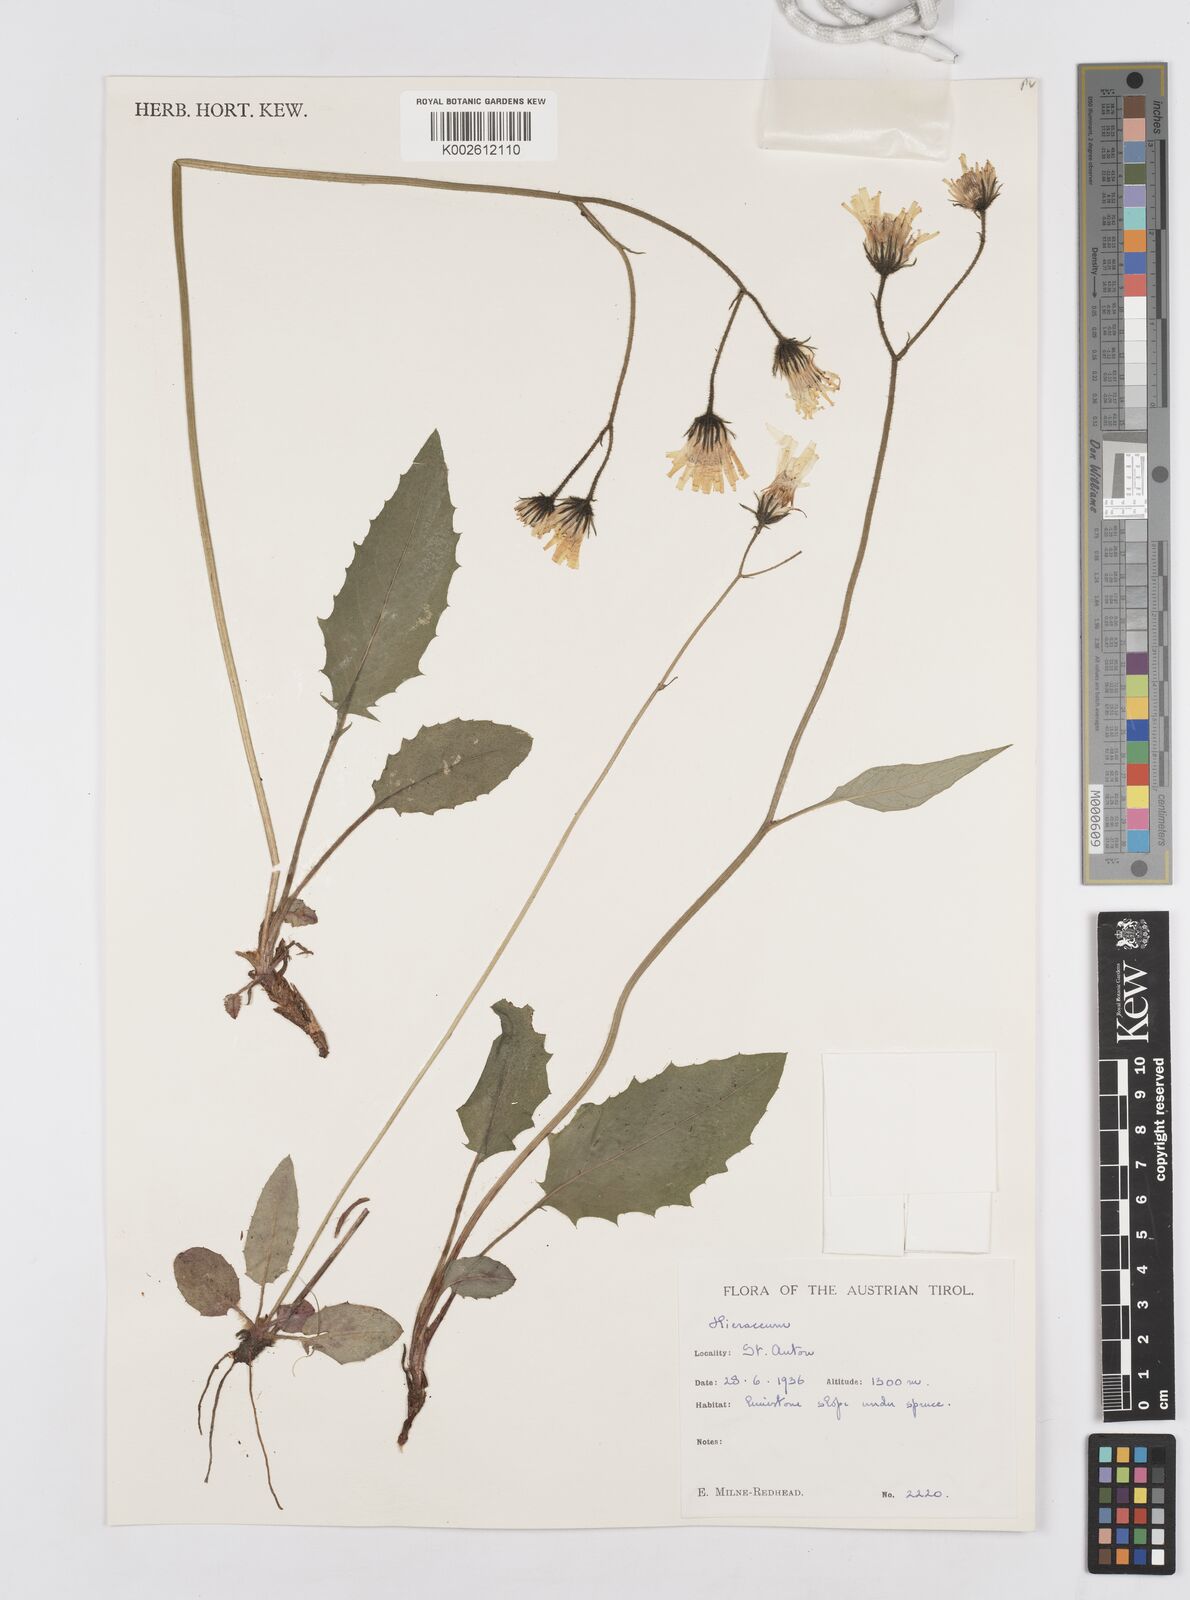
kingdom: Plantae
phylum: Tracheophyta
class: Magnoliopsida
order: Asterales
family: Asteraceae
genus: Hieracium
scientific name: Hieracium
